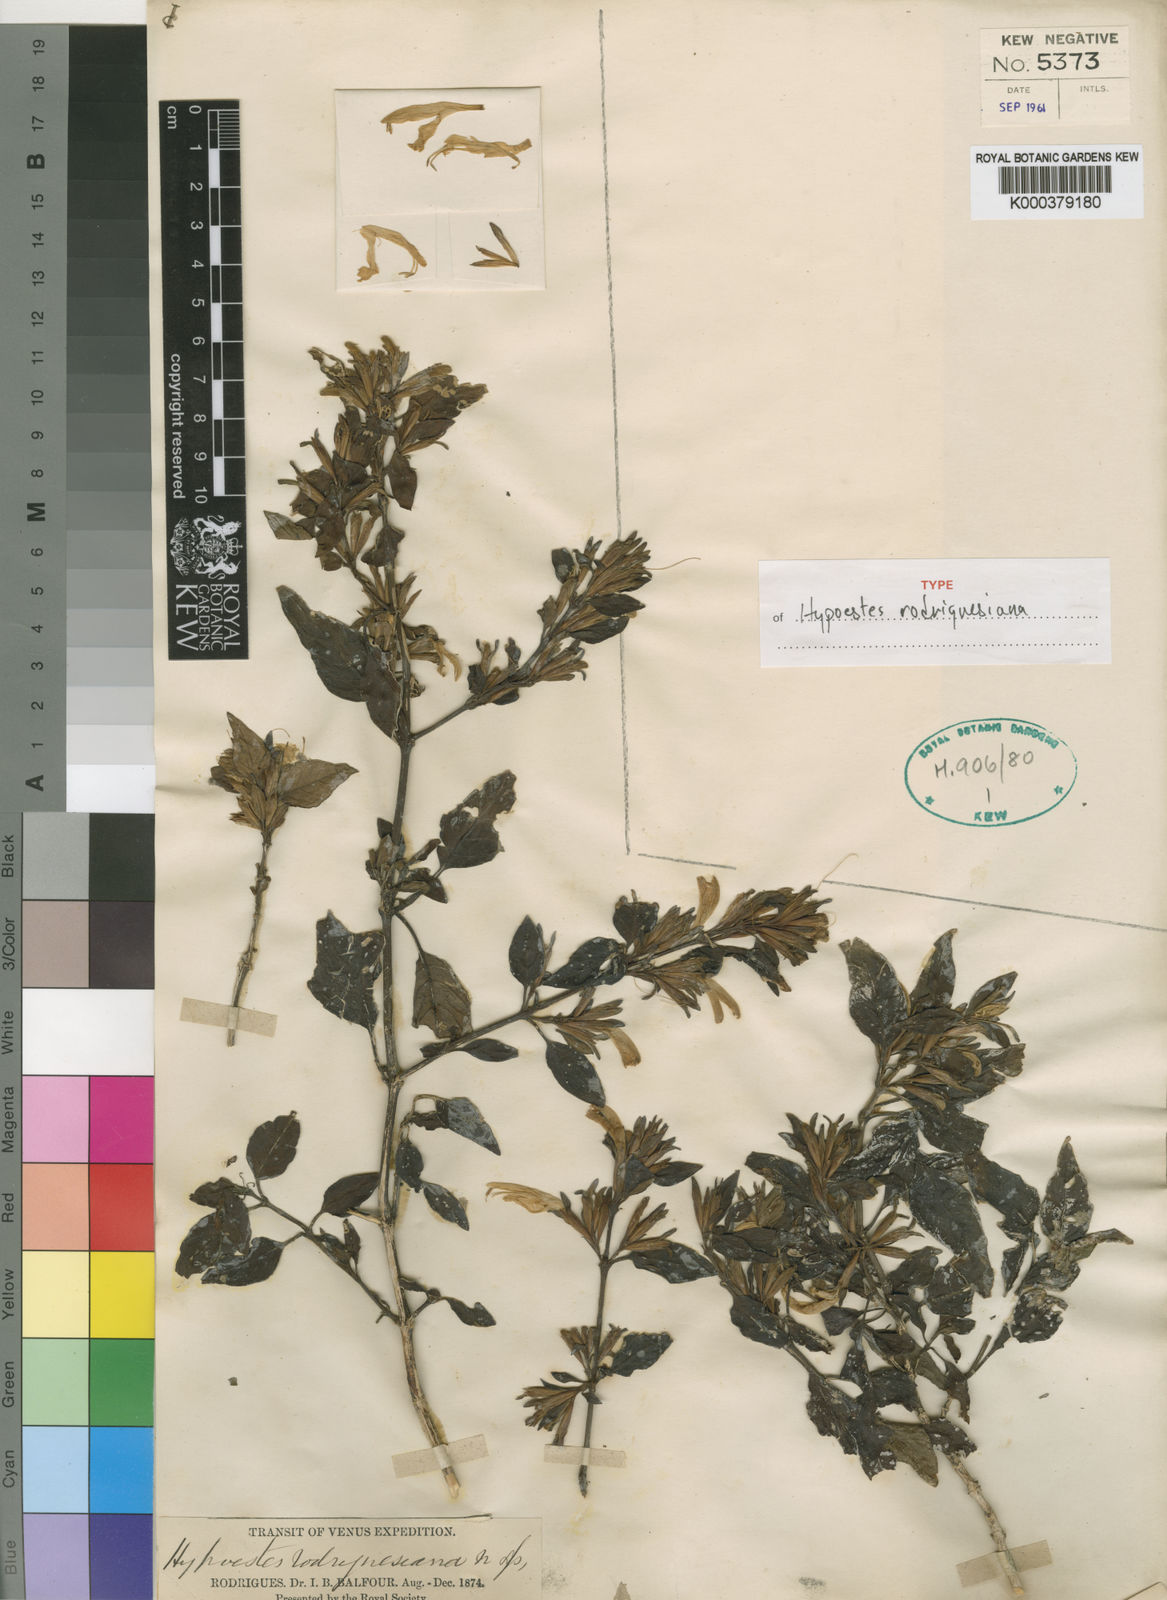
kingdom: Plantae
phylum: Tracheophyta
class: Magnoliopsida
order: Lamiales
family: Acanthaceae
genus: Hypoestes
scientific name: Hypoestes rodriguesiana
